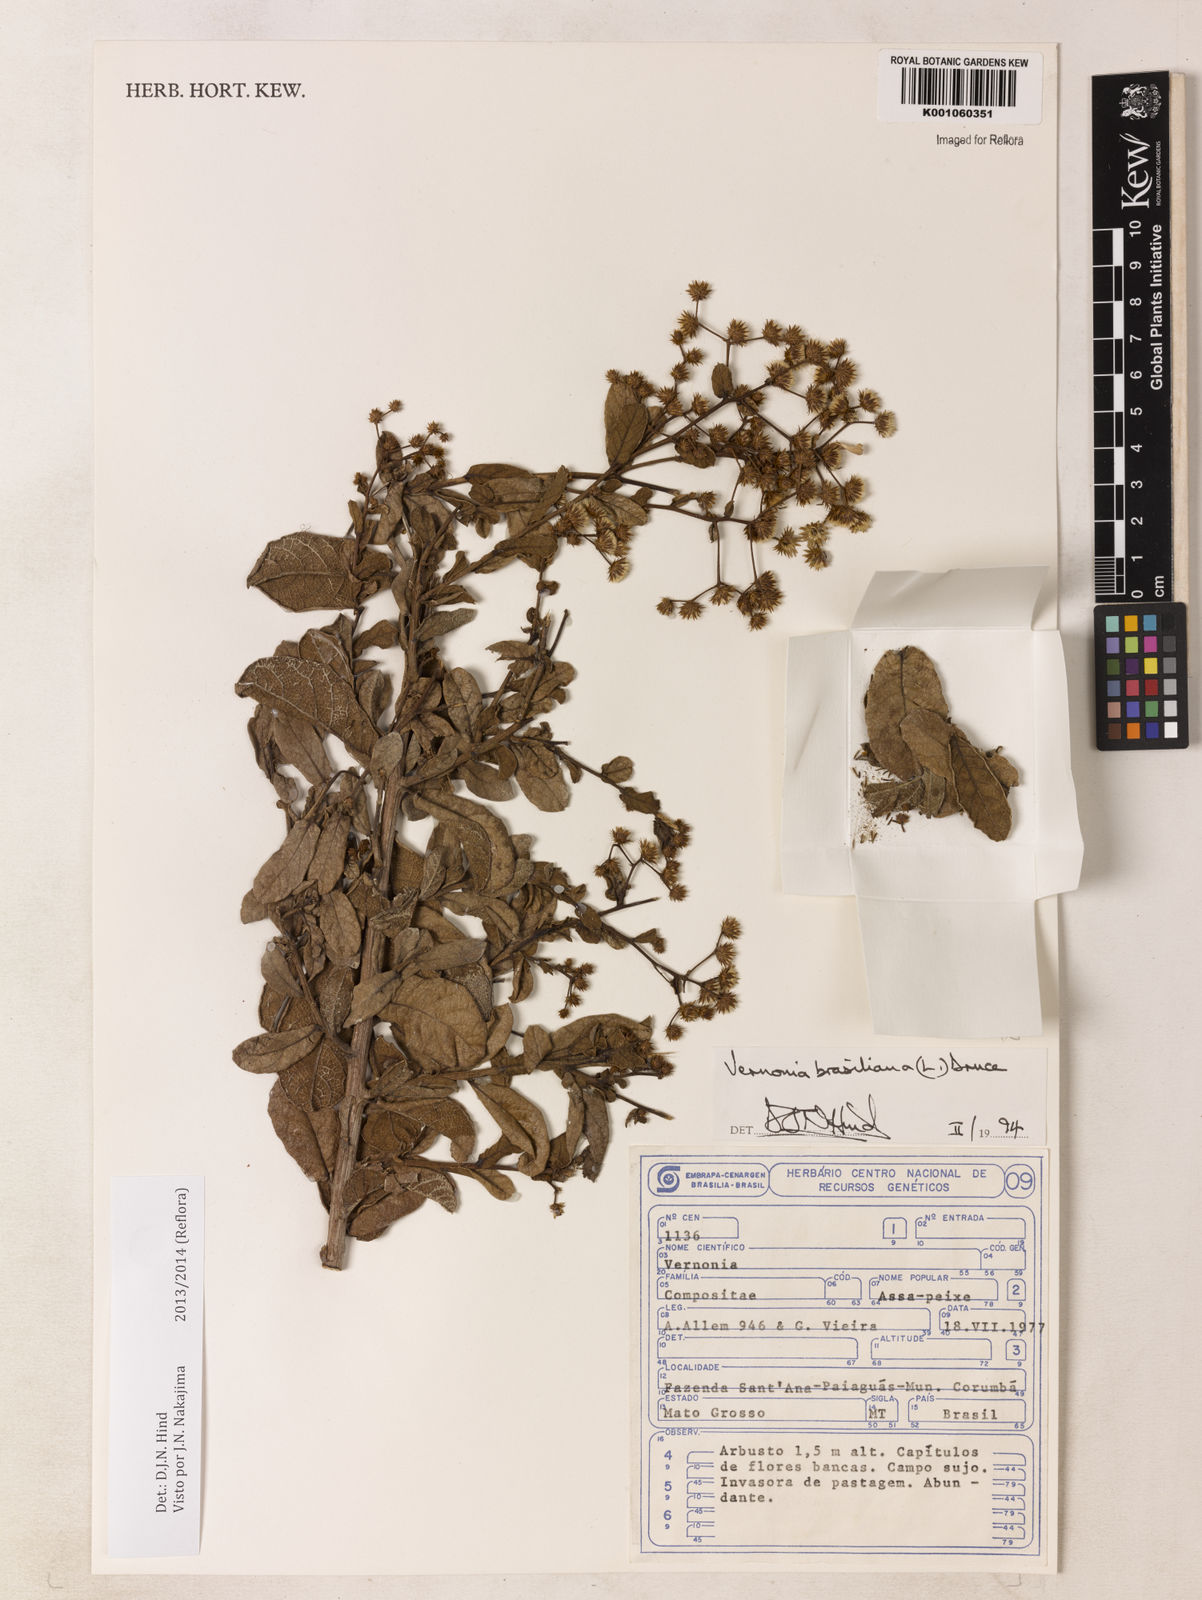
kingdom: Plantae
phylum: Tracheophyta
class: Magnoliopsida
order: Asterales
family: Asteraceae
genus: Vernonanthura
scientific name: Vernonanthura brasiliana
